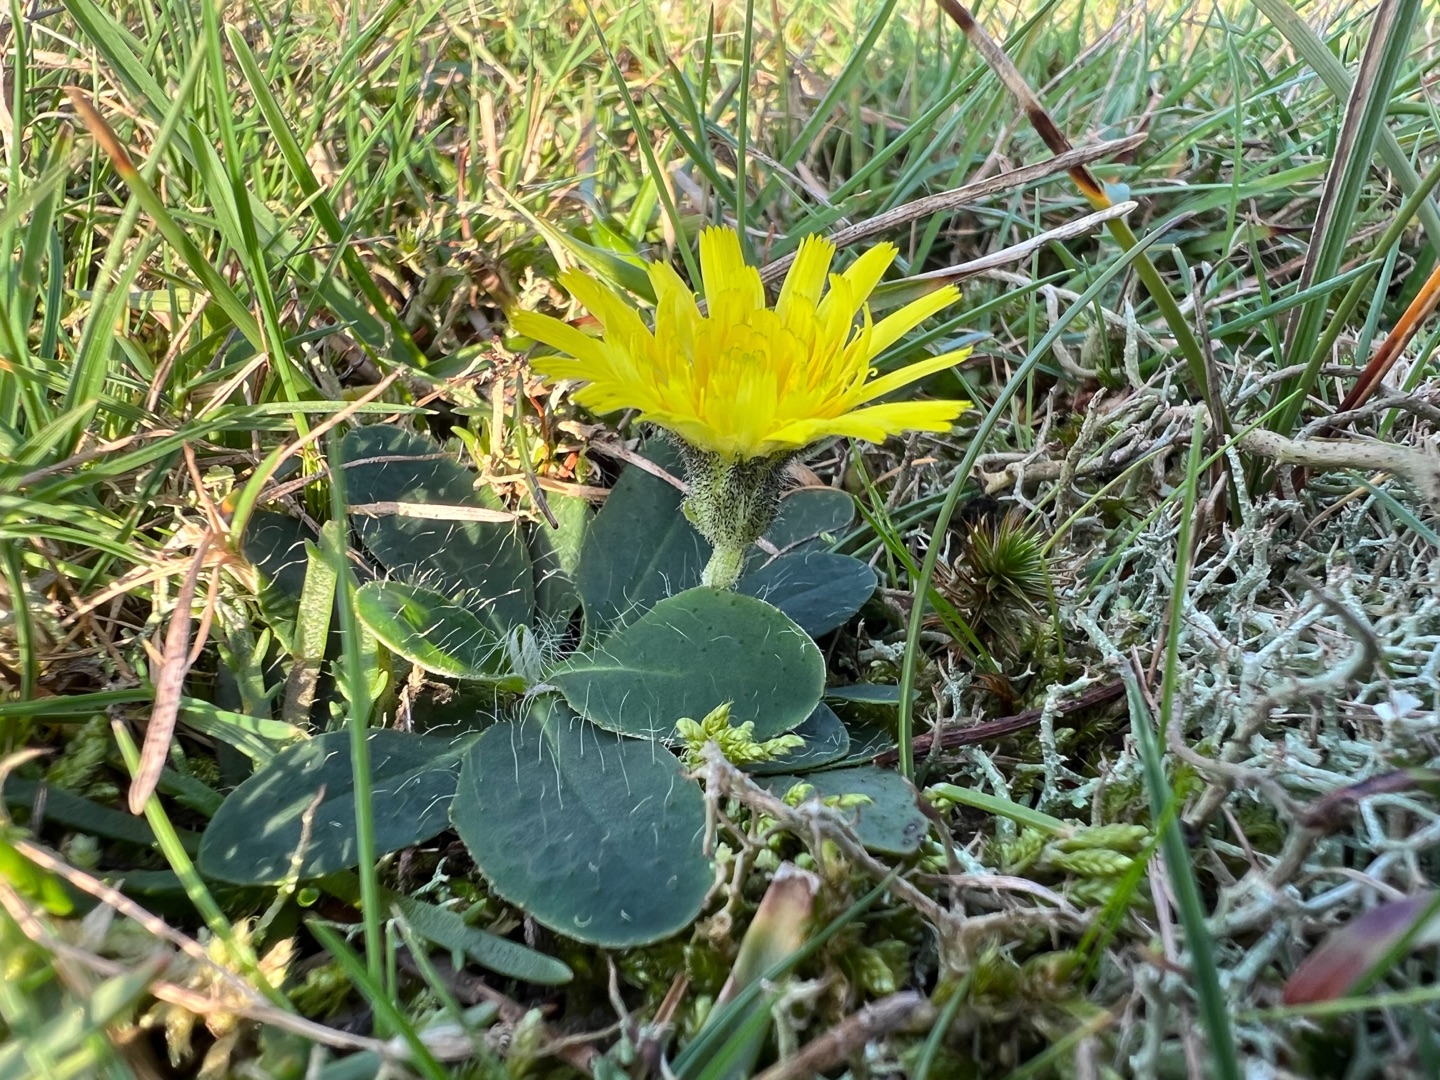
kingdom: Plantae
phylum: Tracheophyta
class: Magnoliopsida
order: Asterales
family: Asteraceae
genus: Pilosella
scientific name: Pilosella officinarum
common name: Håret høgeurt
